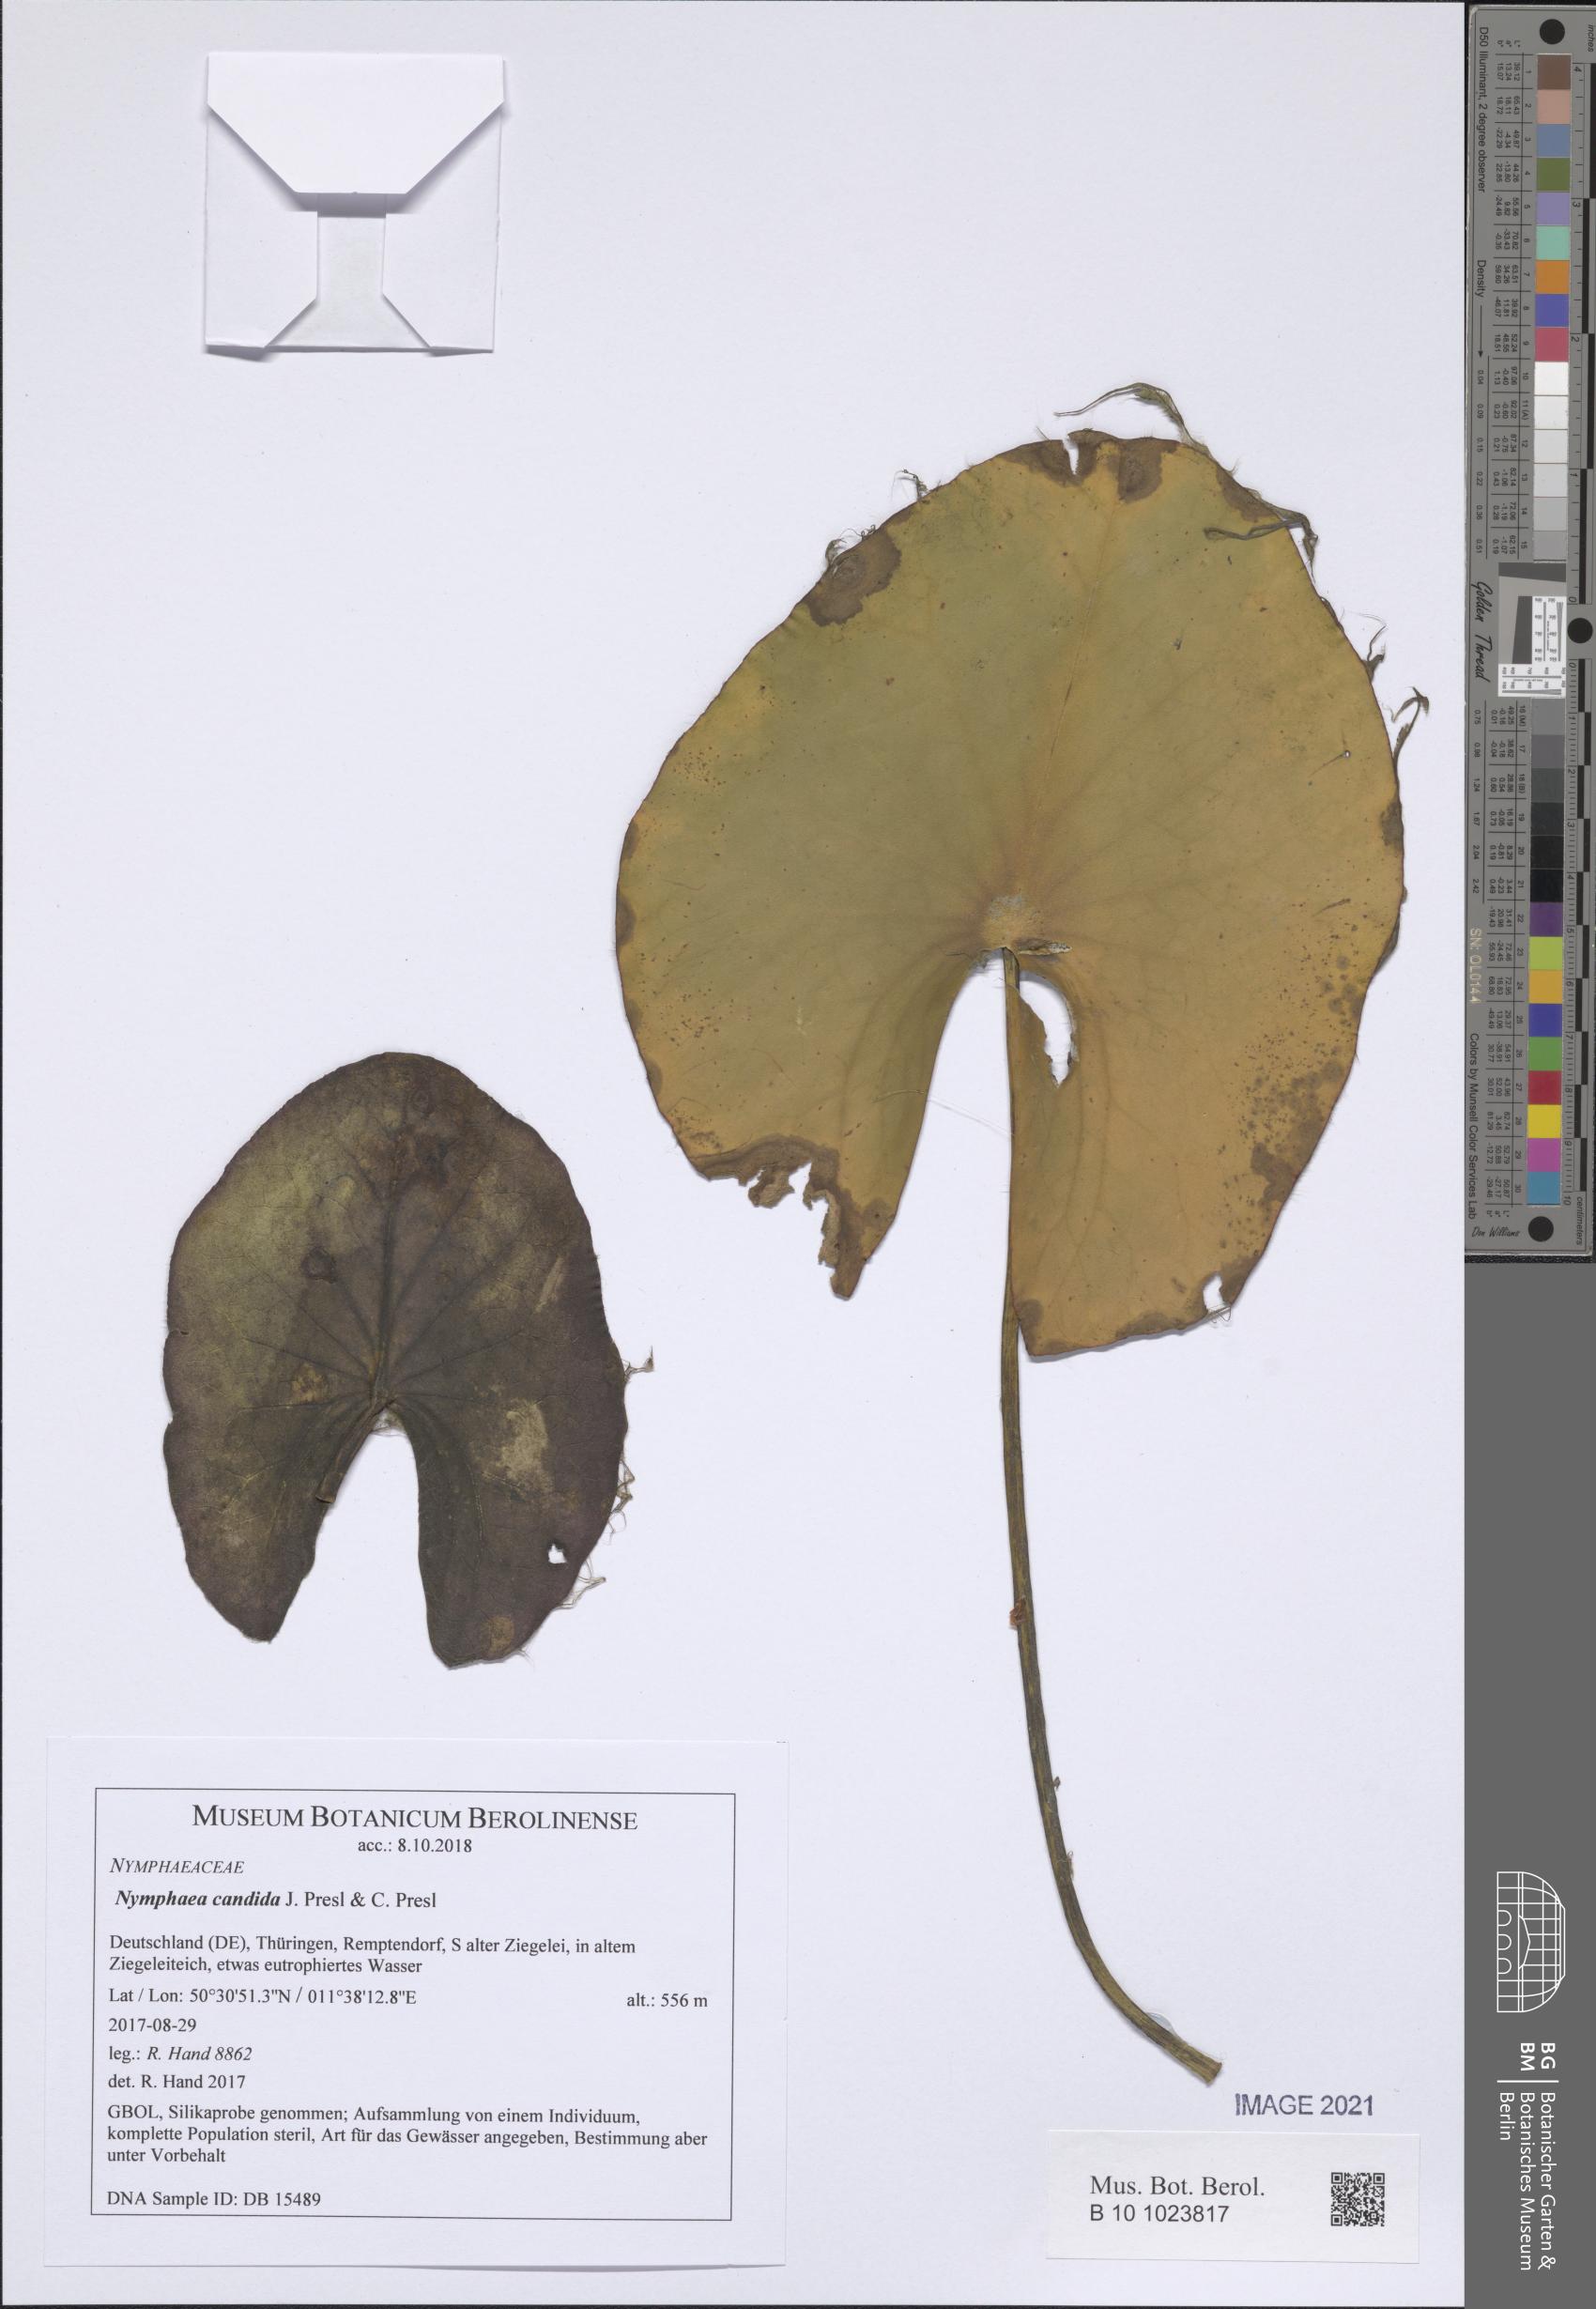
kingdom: Plantae
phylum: Tracheophyta
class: Magnoliopsida
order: Nymphaeales
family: Nymphaeaceae
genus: Nymphaea
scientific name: Nymphaea candida
